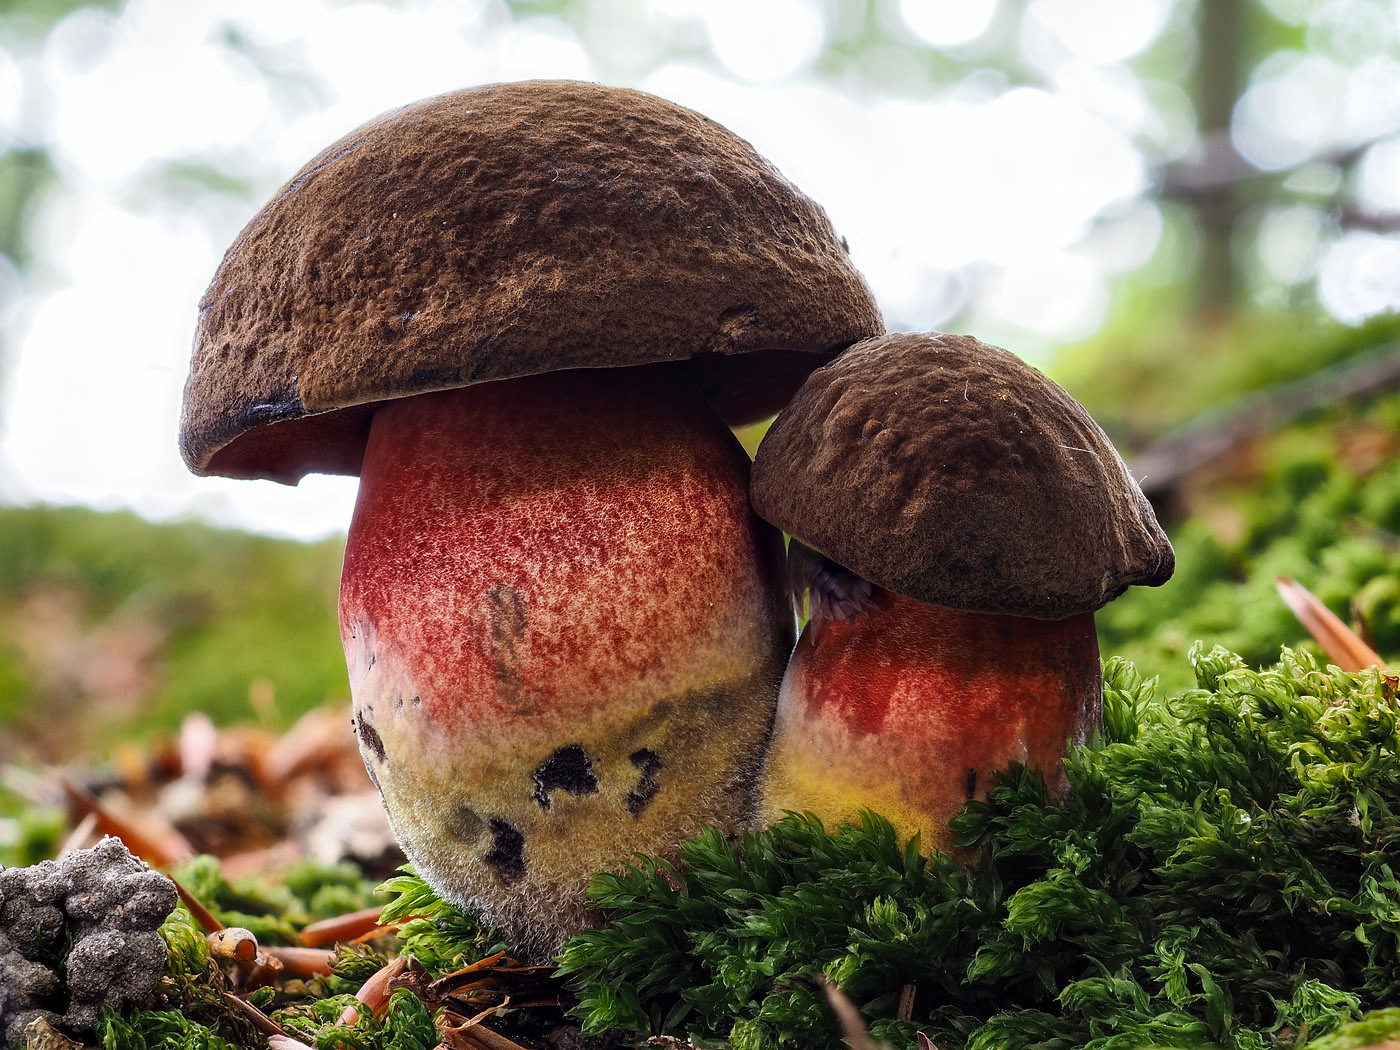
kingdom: Fungi
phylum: Basidiomycota
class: Agaricomycetes
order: Boletales
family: Boletaceae
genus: Neoboletus
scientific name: Neoboletus erythropus
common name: punktstokket indigorørhat
